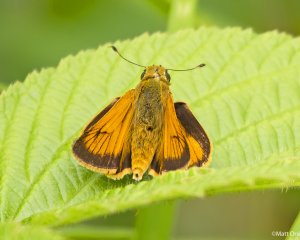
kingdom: Animalia
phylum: Arthropoda
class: Insecta
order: Lepidoptera
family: Hesperiidae
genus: Atrytone
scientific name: Atrytone delaware
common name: Delaware Skipper
